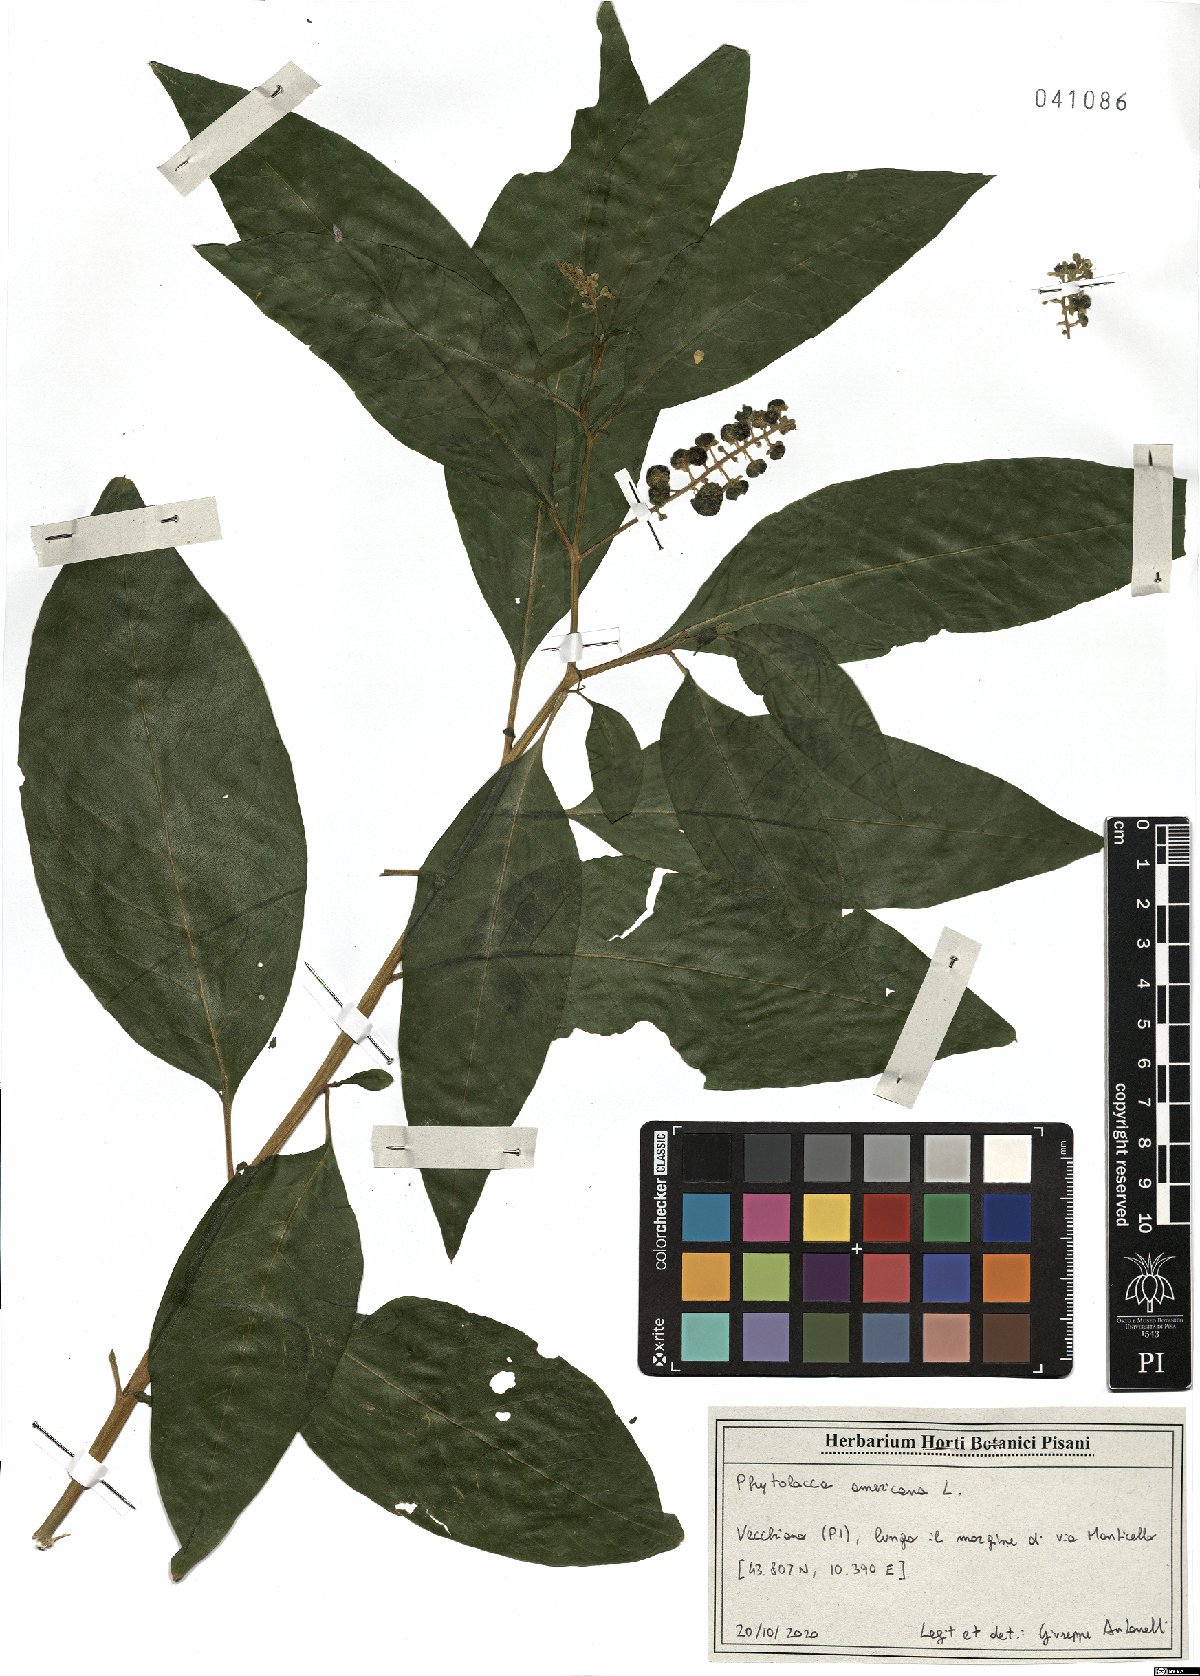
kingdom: Plantae
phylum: Tracheophyta
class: Magnoliopsida
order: Caryophyllales
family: Phytolaccaceae
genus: Phytolacca
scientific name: Phytolacca americana
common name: American pokeweed
